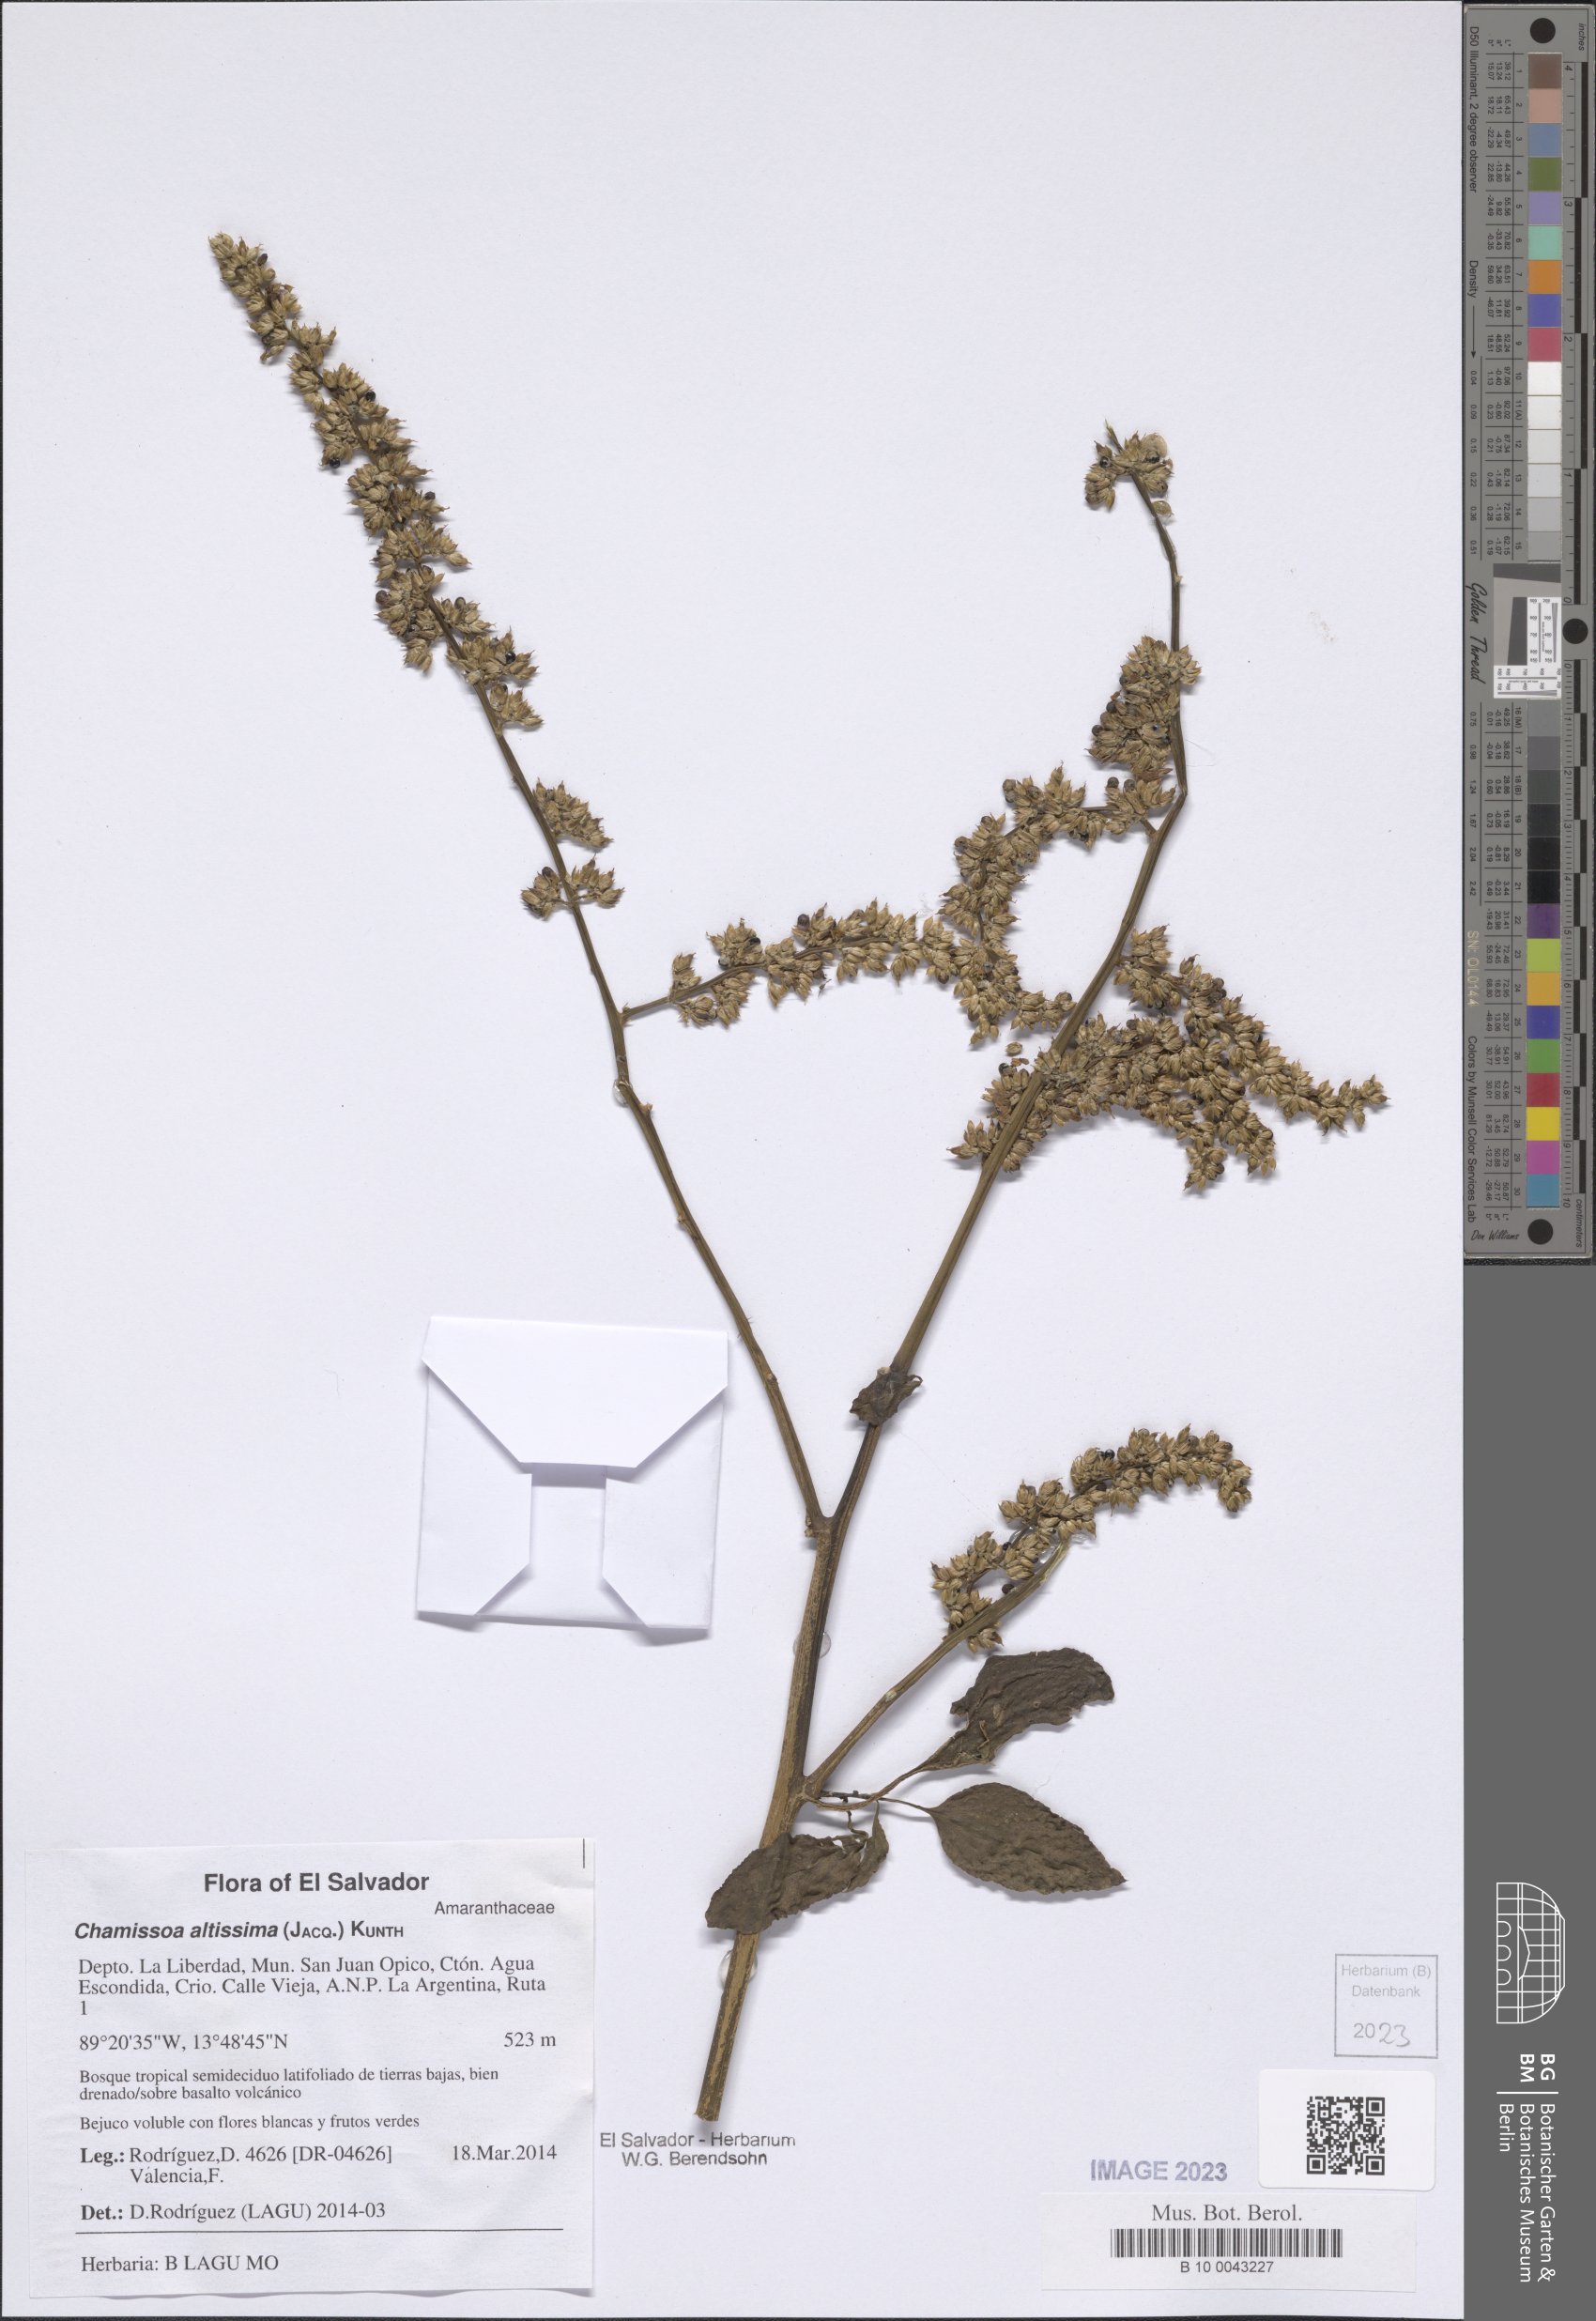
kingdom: Plantae
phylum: Tracheophyta
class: Magnoliopsida
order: Caryophyllales
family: Amaranthaceae
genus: Chamissoa
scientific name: Chamissoa altissima
